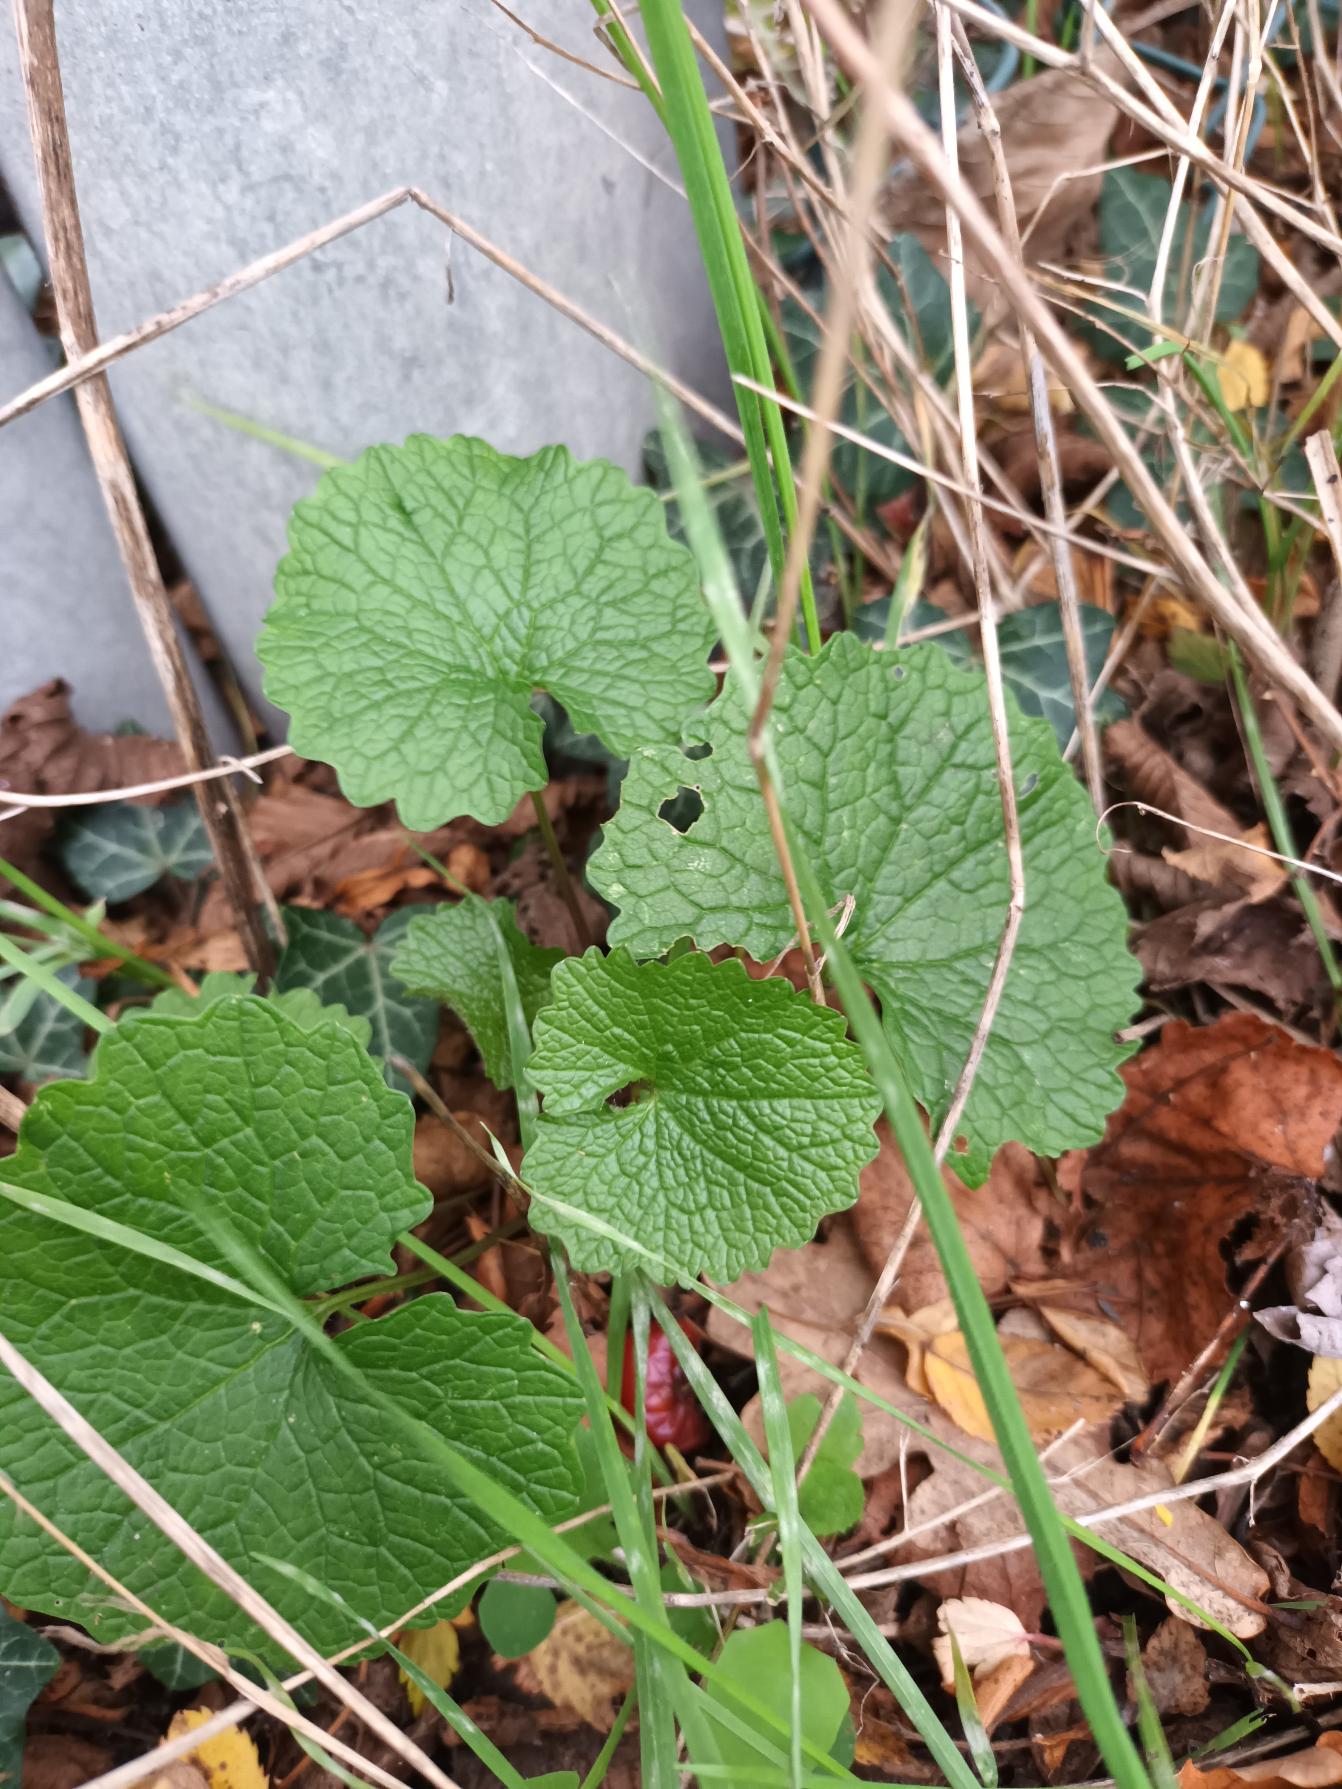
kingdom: Plantae
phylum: Tracheophyta
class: Magnoliopsida
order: Brassicales
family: Brassicaceae
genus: Alliaria
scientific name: Alliaria petiolata
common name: Løgkarse
